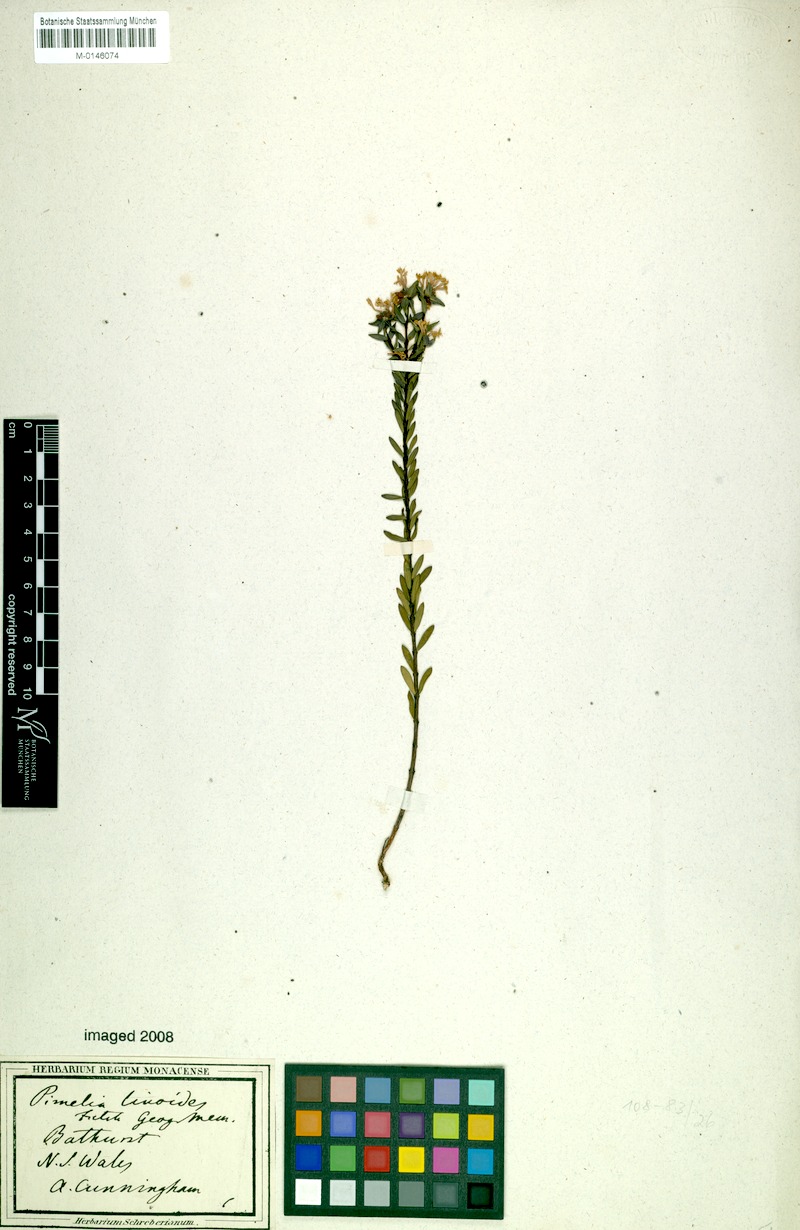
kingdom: Plantae
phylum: Tracheophyta
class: Magnoliopsida
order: Malvales
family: Thymelaeaceae
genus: Pimelea
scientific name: Pimelea linifolia
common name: Queen-of-the-bush
